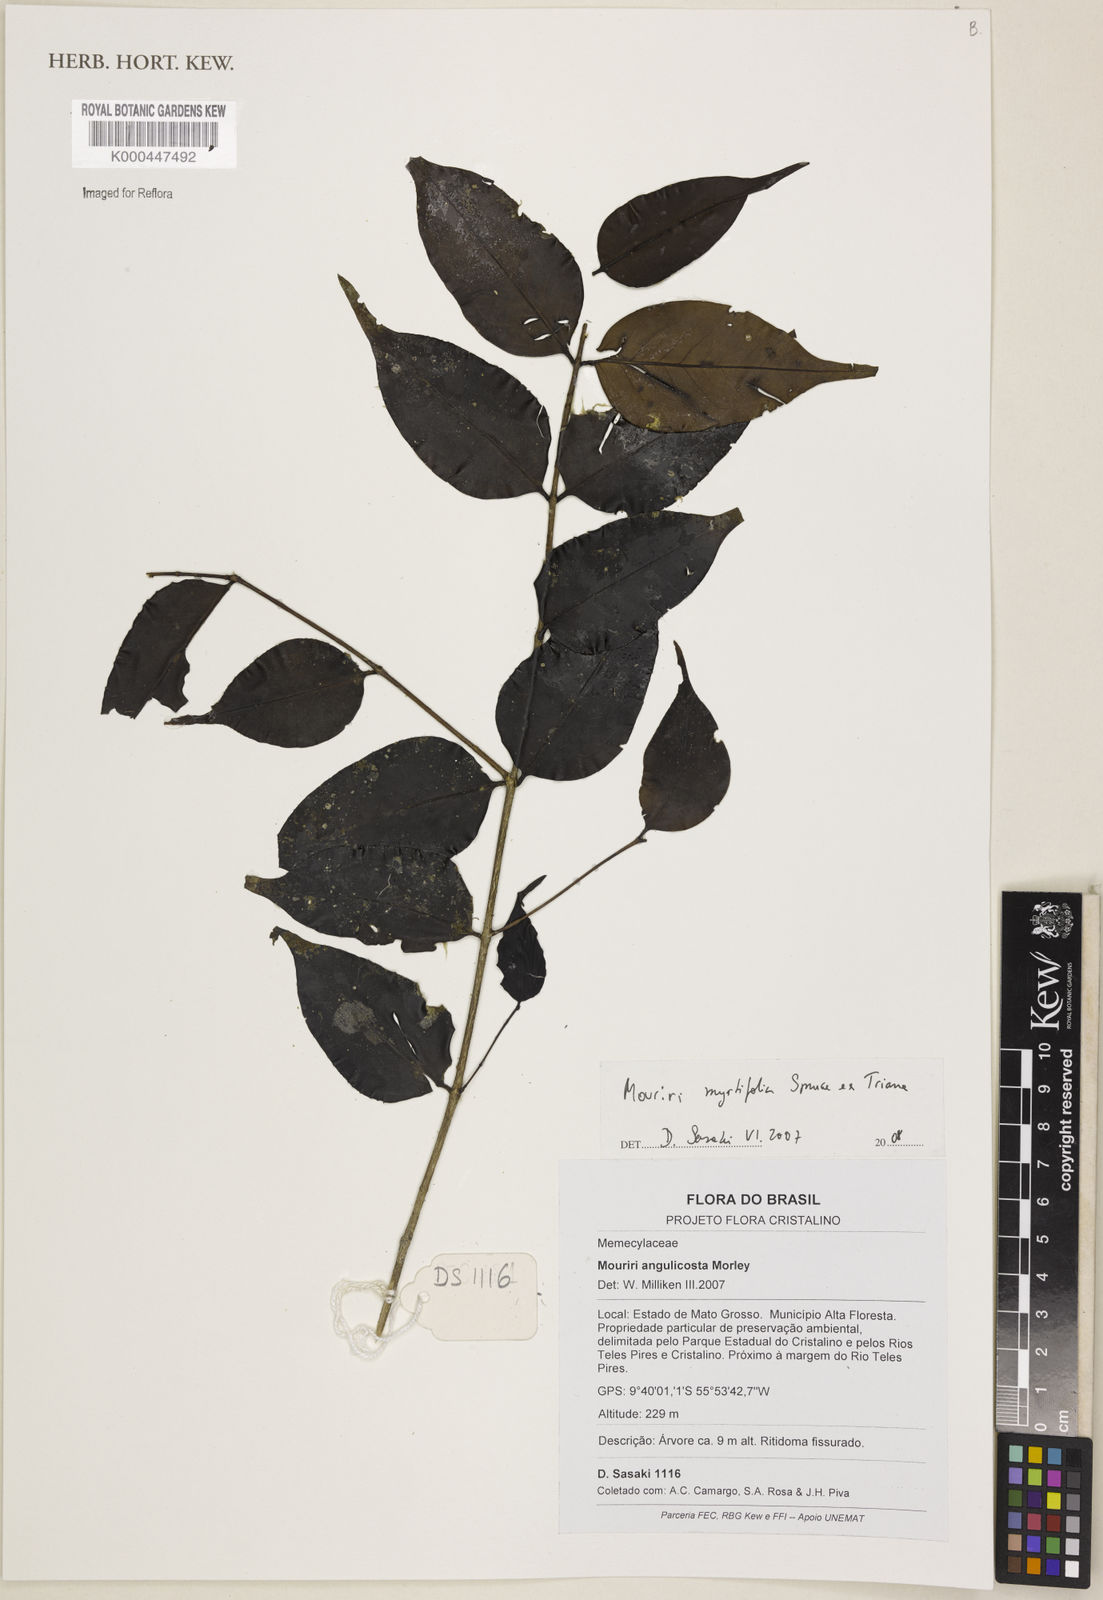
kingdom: Plantae
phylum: Tracheophyta
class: Magnoliopsida
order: Myrtales
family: Melastomataceae
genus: Mouriri
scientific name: Mouriri myrtifolia
